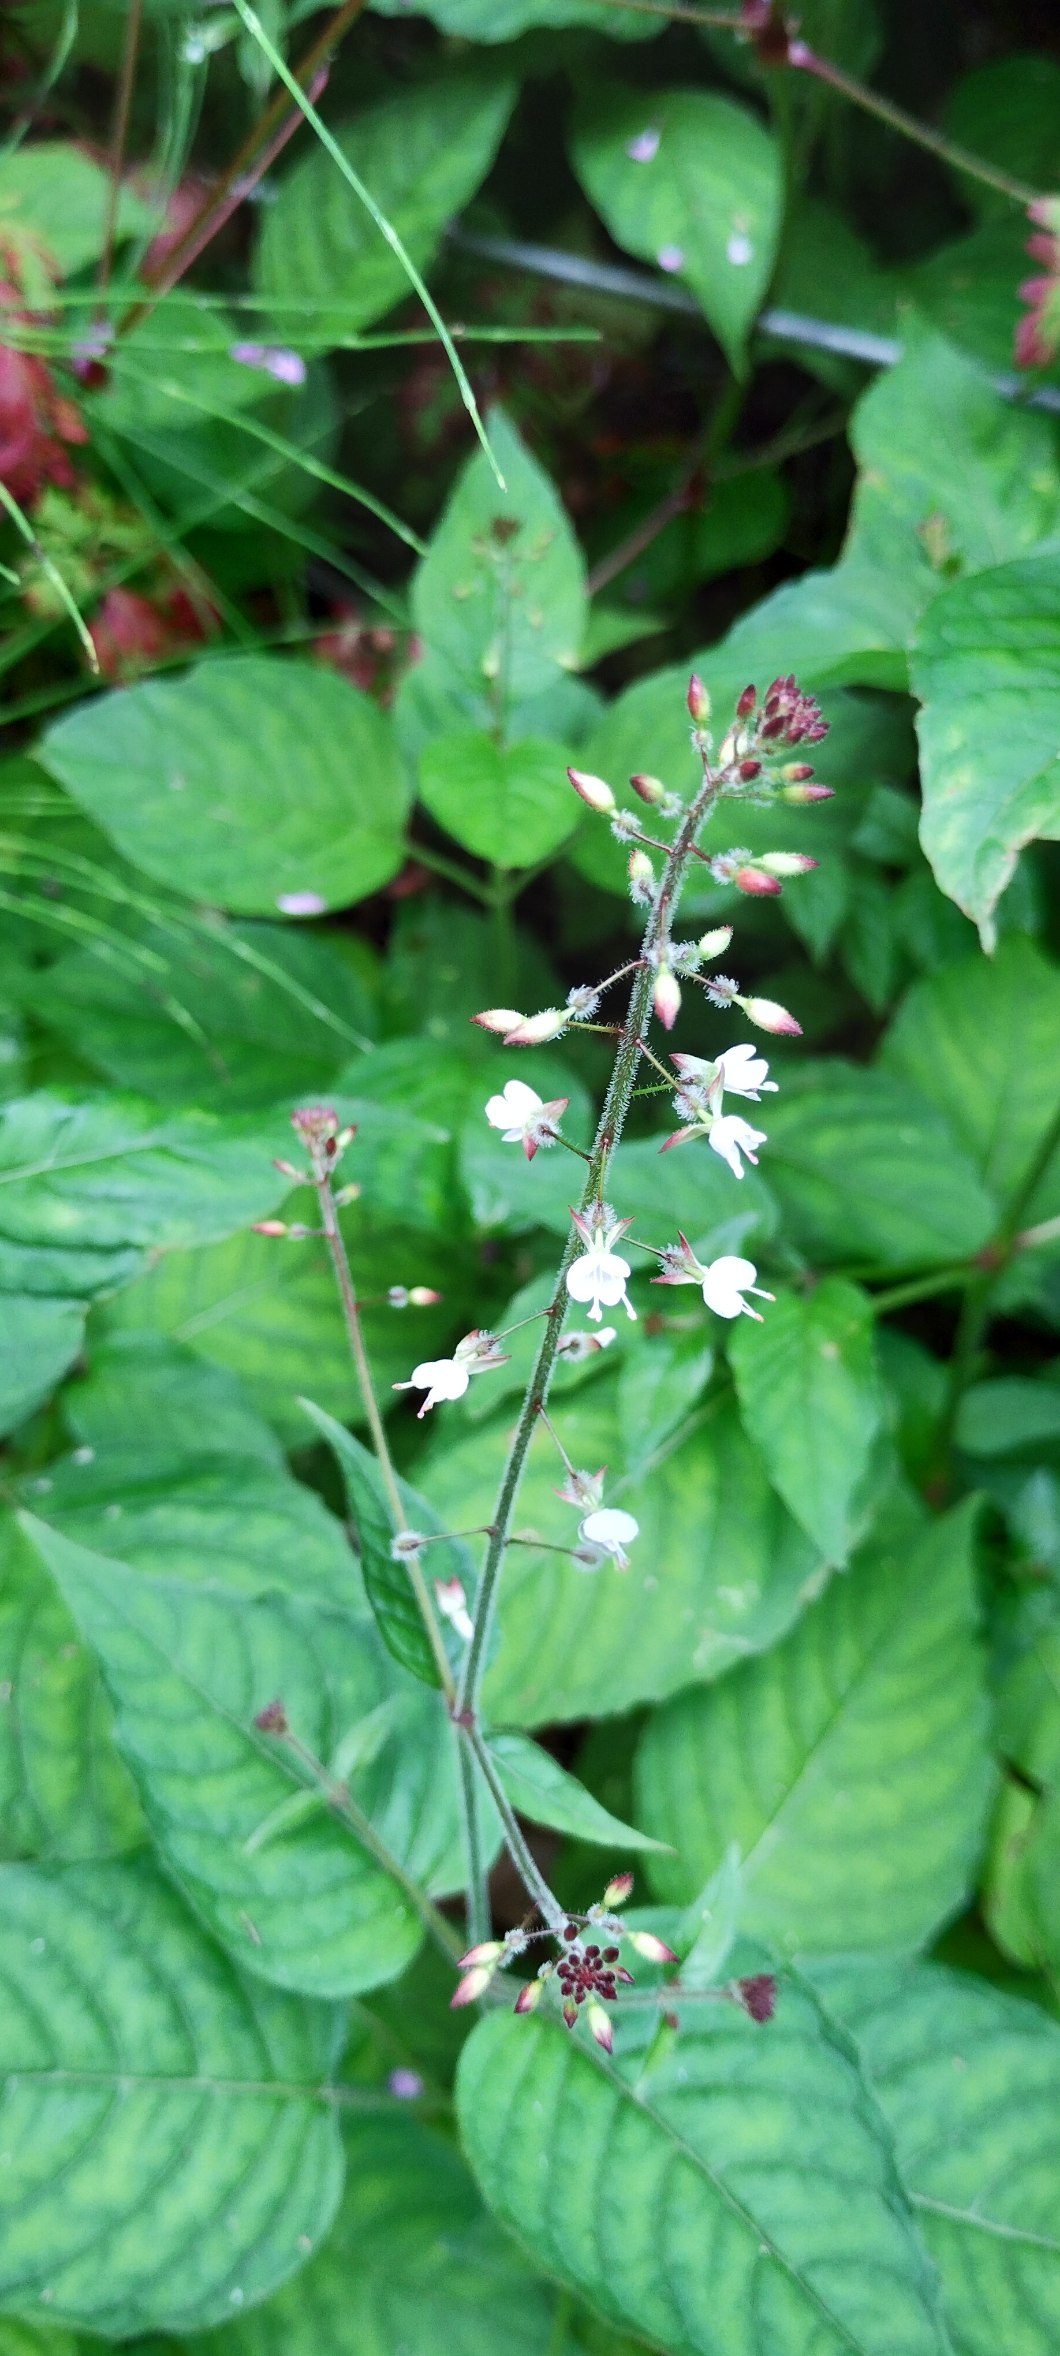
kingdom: Plantae
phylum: Tracheophyta
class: Magnoliopsida
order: Myrtales
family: Onagraceae
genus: Circaea
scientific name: Circaea lutetiana
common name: Dunet steffensurt
